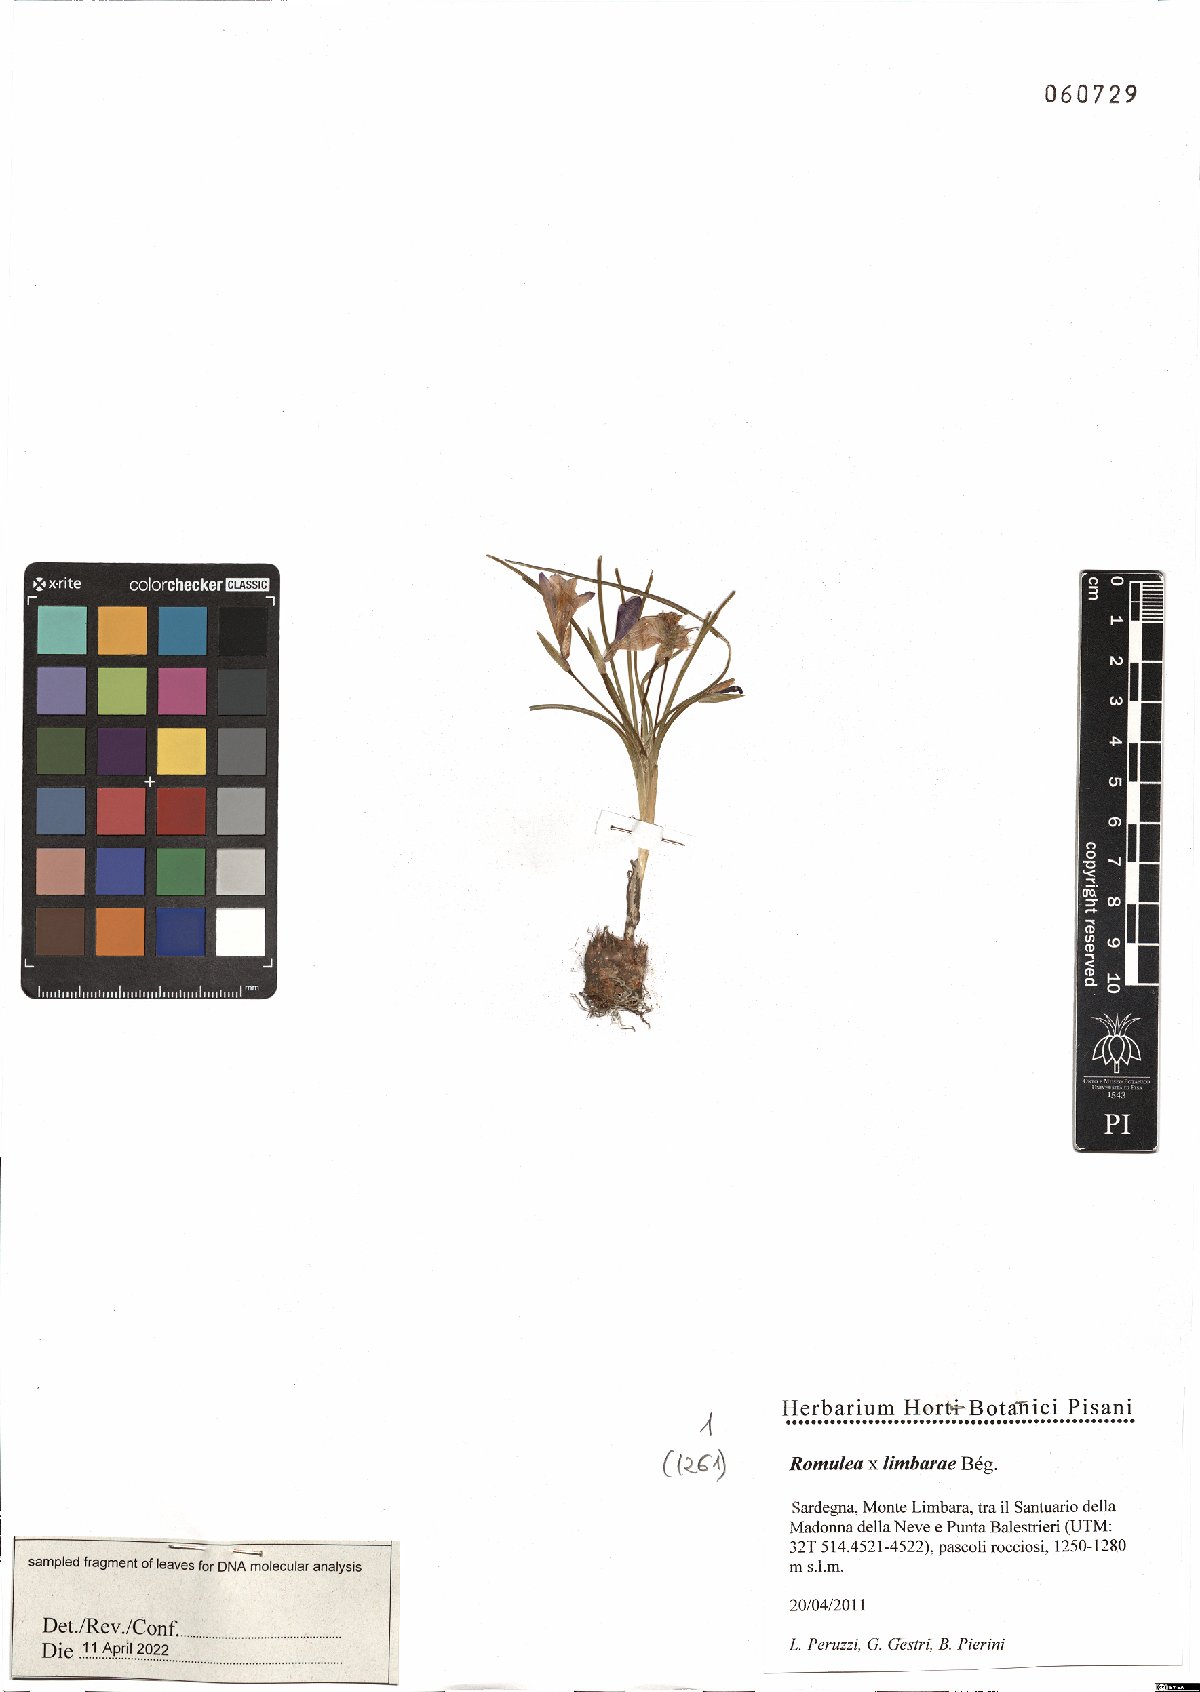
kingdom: Plantae
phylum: Tracheophyta
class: Liliopsida
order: Asparagales
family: Iridaceae
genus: Romulea
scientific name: Romulea limbarae
